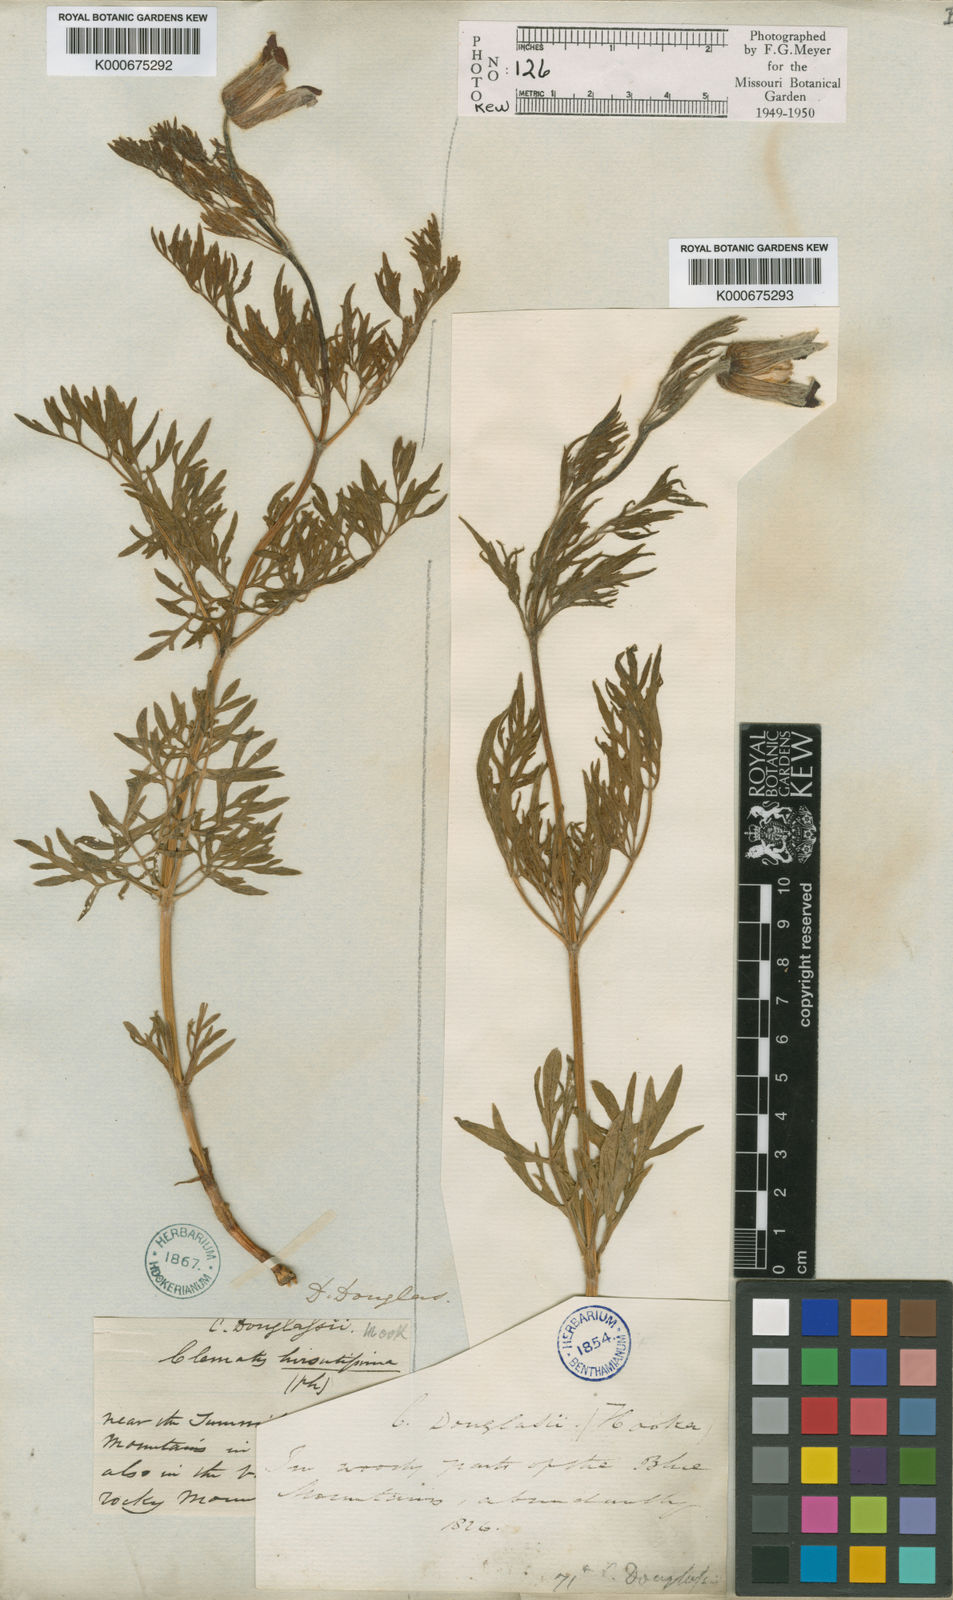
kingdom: Plantae
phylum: Tracheophyta
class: Magnoliopsida
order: Ranunculales
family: Ranunculaceae
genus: Clematis
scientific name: Clematis hirsutissima
